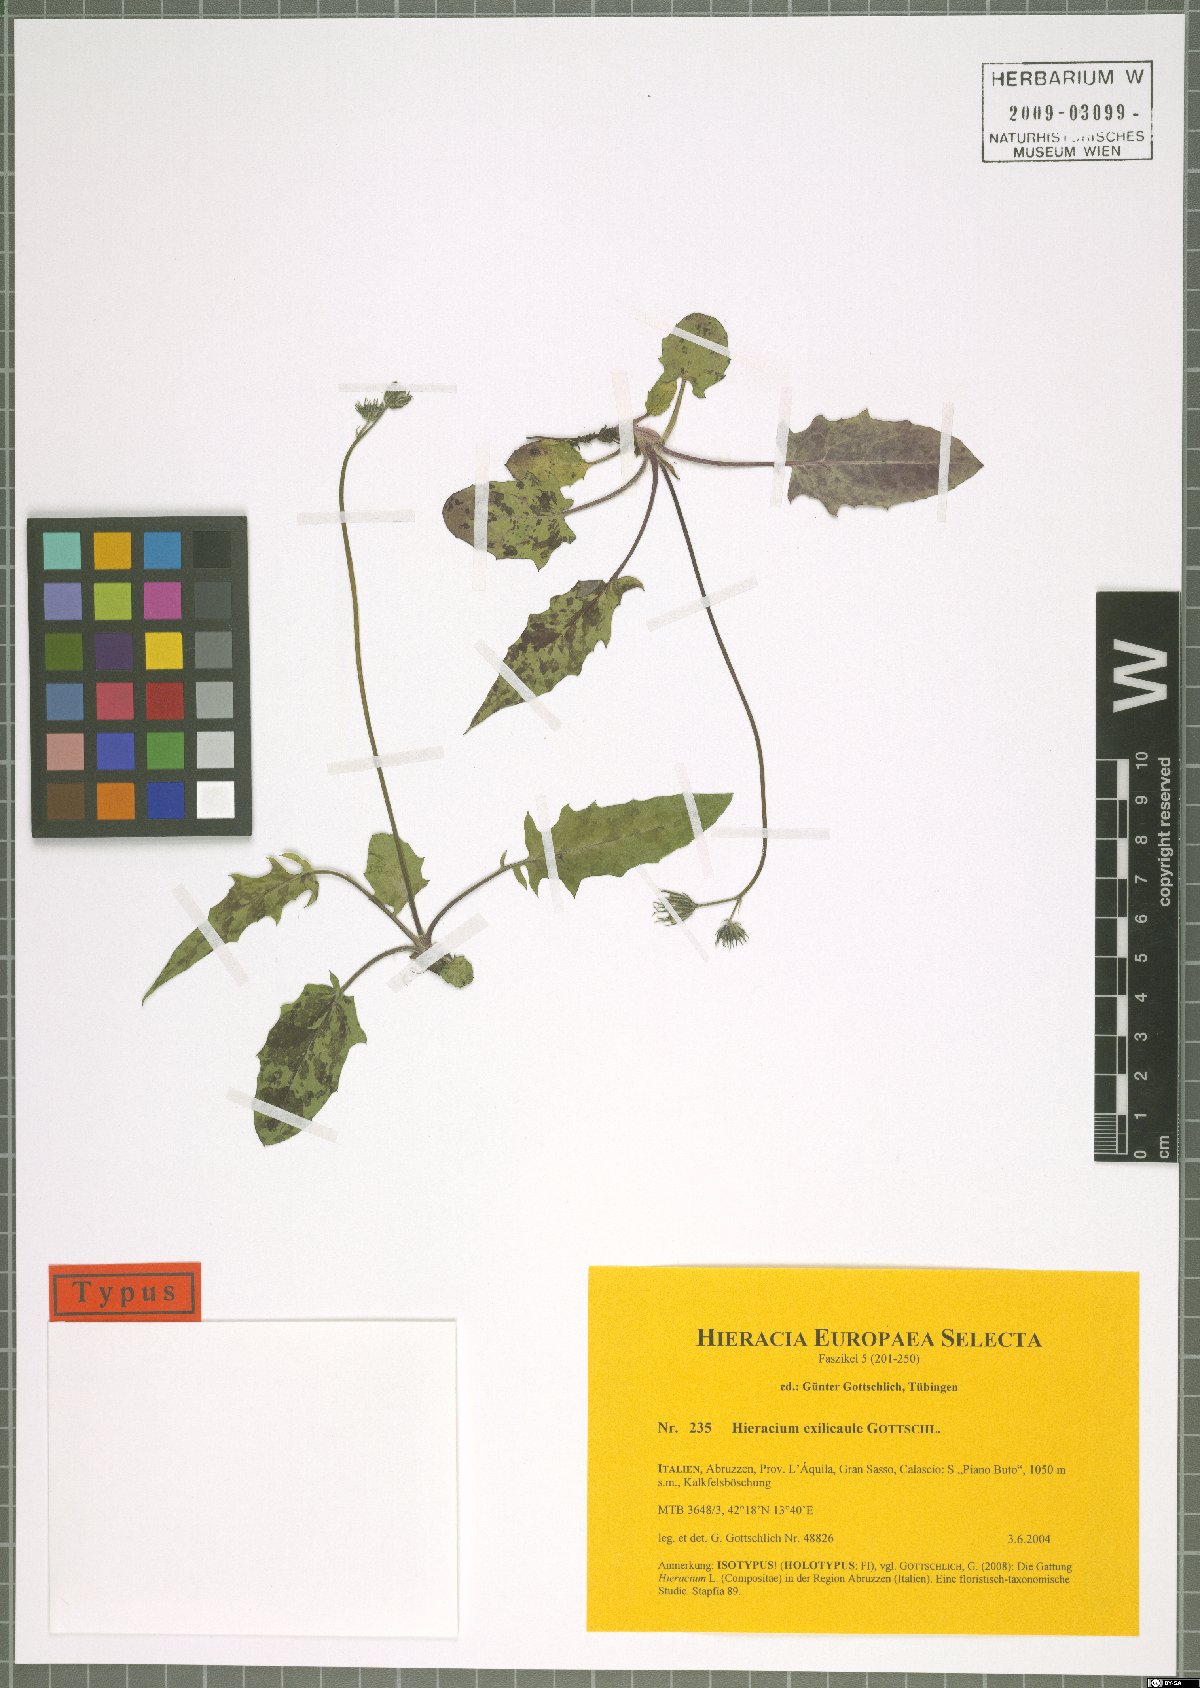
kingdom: Plantae
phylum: Tracheophyta
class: Magnoliopsida
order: Asterales
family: Asteraceae
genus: Hieracium
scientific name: Hieracium exilicaule
